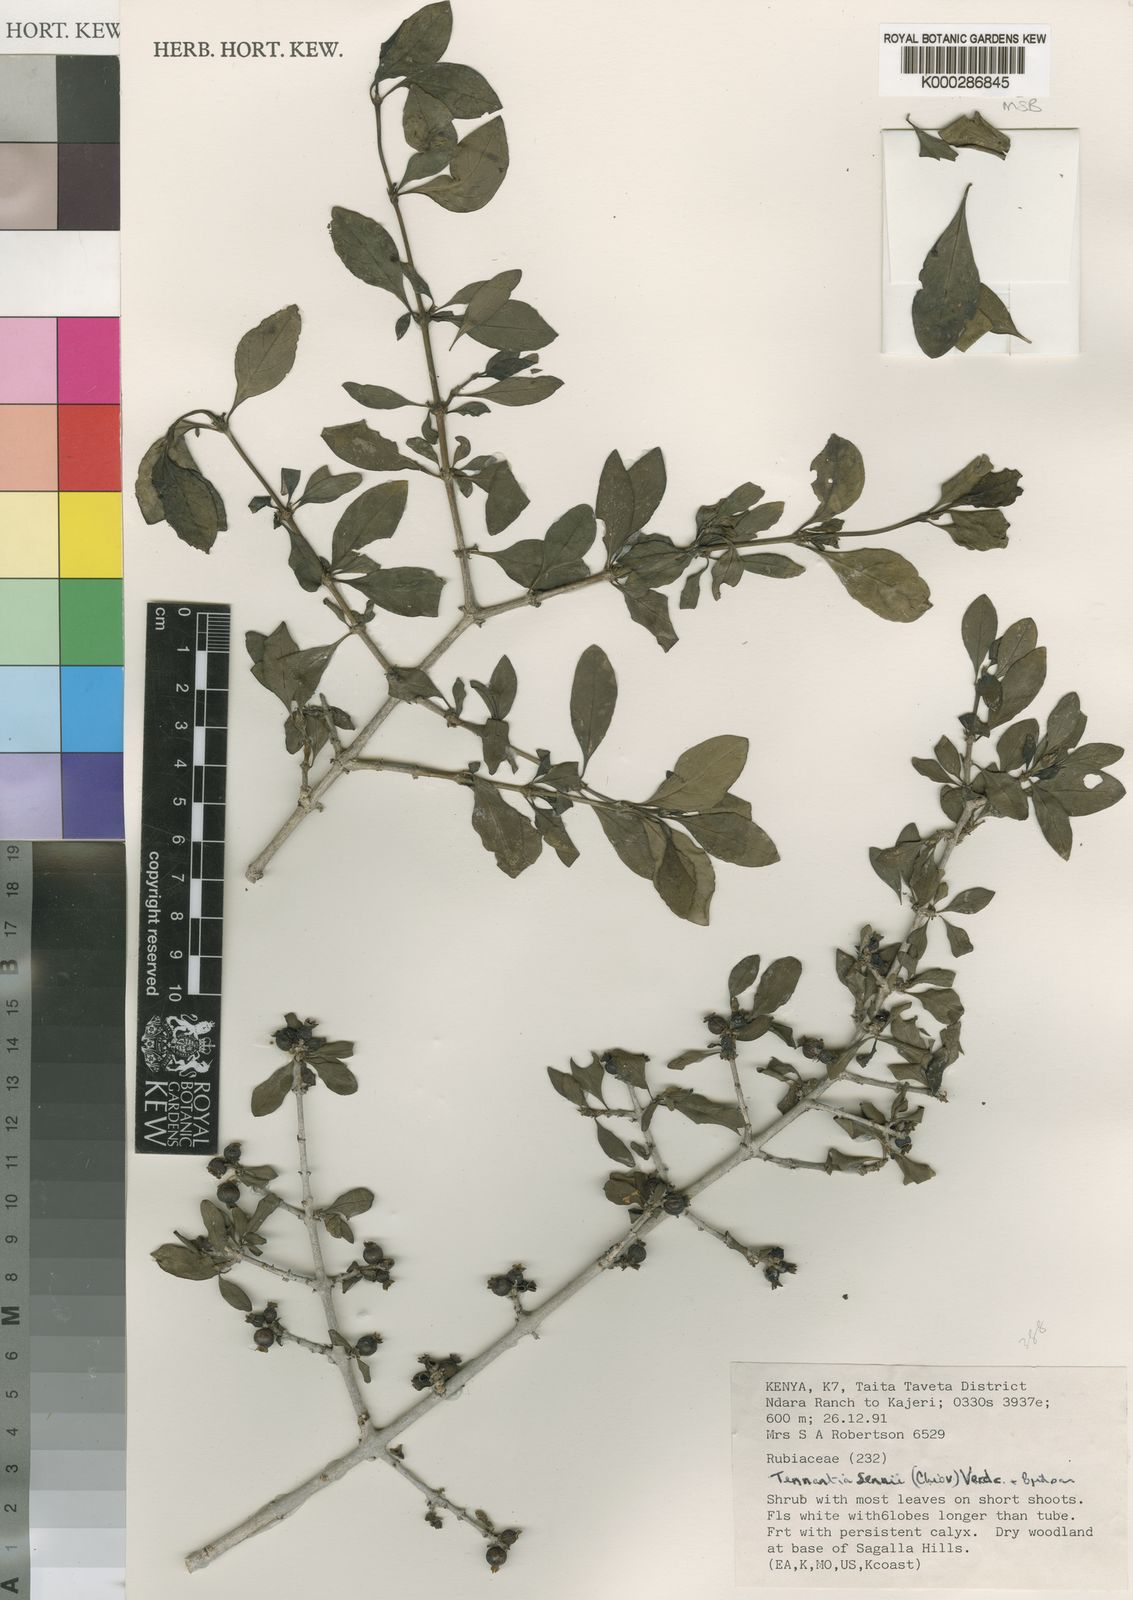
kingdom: Plantae
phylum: Tracheophyta
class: Magnoliopsida
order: Gentianales
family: Rubiaceae
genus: Tennantia
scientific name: Tennantia sennii
